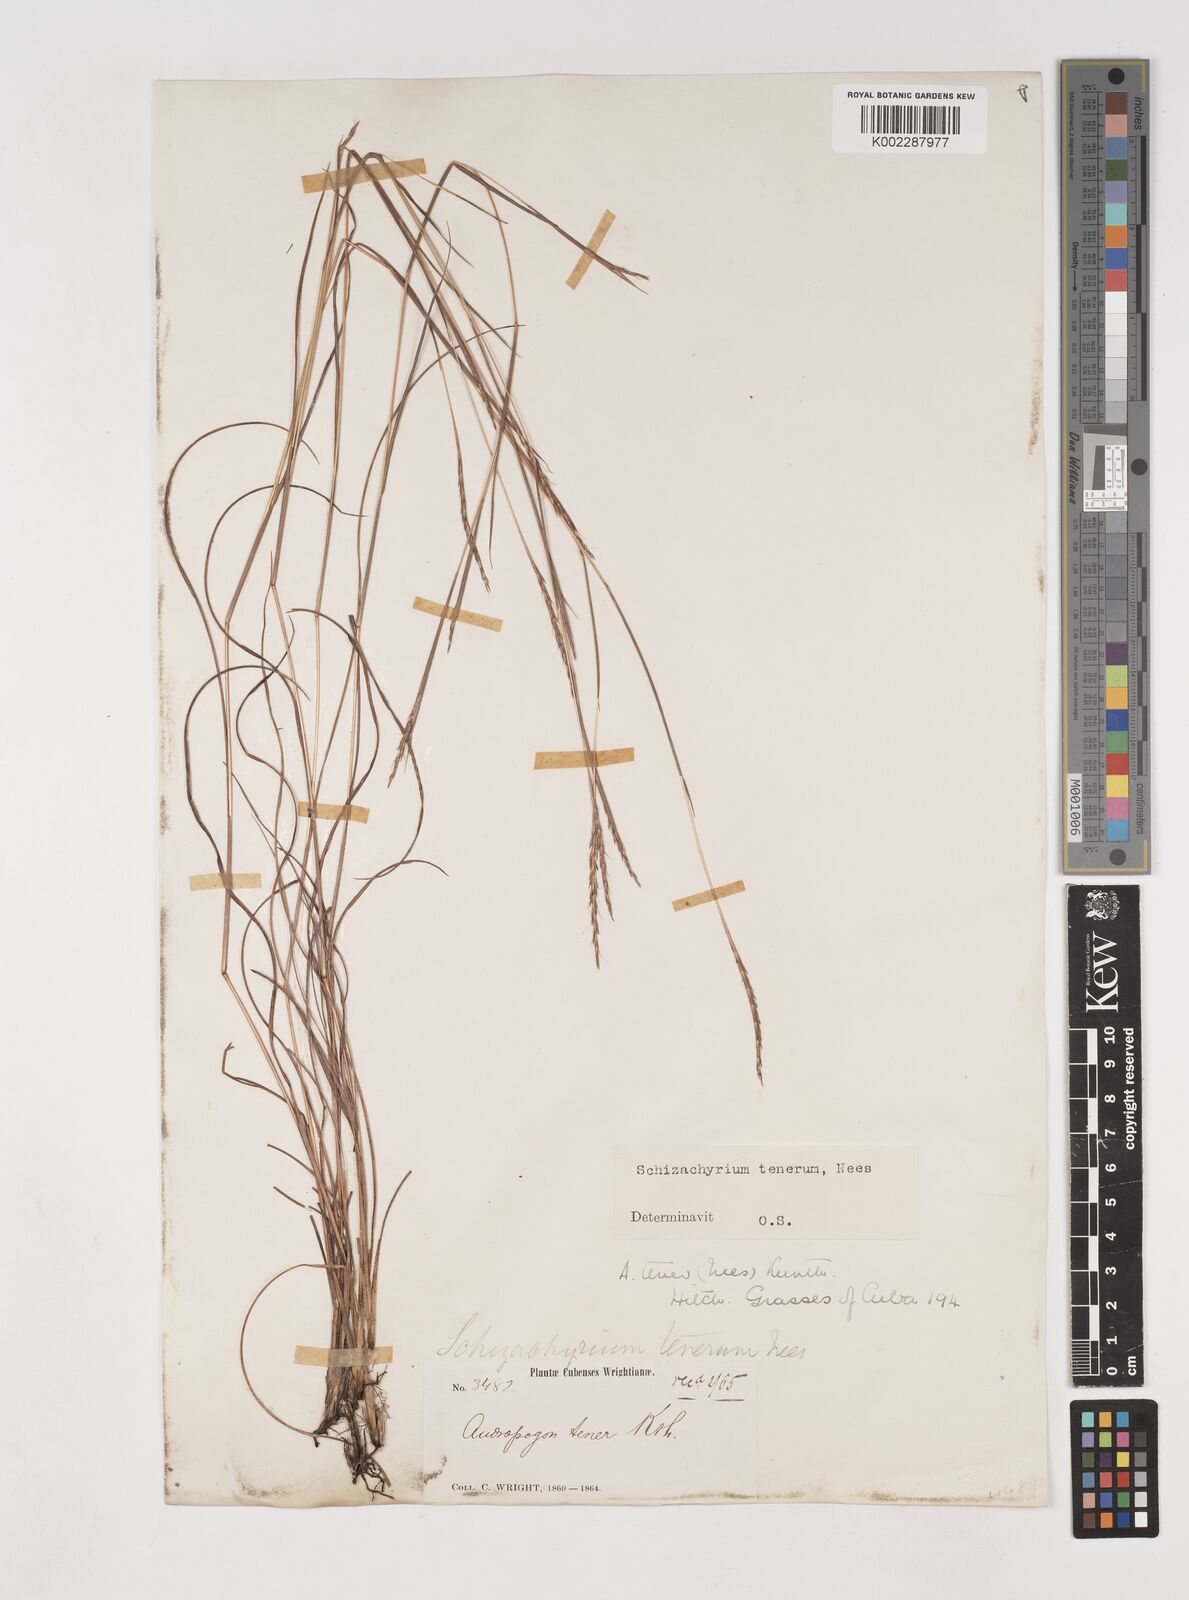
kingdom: Plantae
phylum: Tracheophyta
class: Liliopsida
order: Poales
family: Poaceae
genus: Andropogon
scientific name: Andropogon tener
